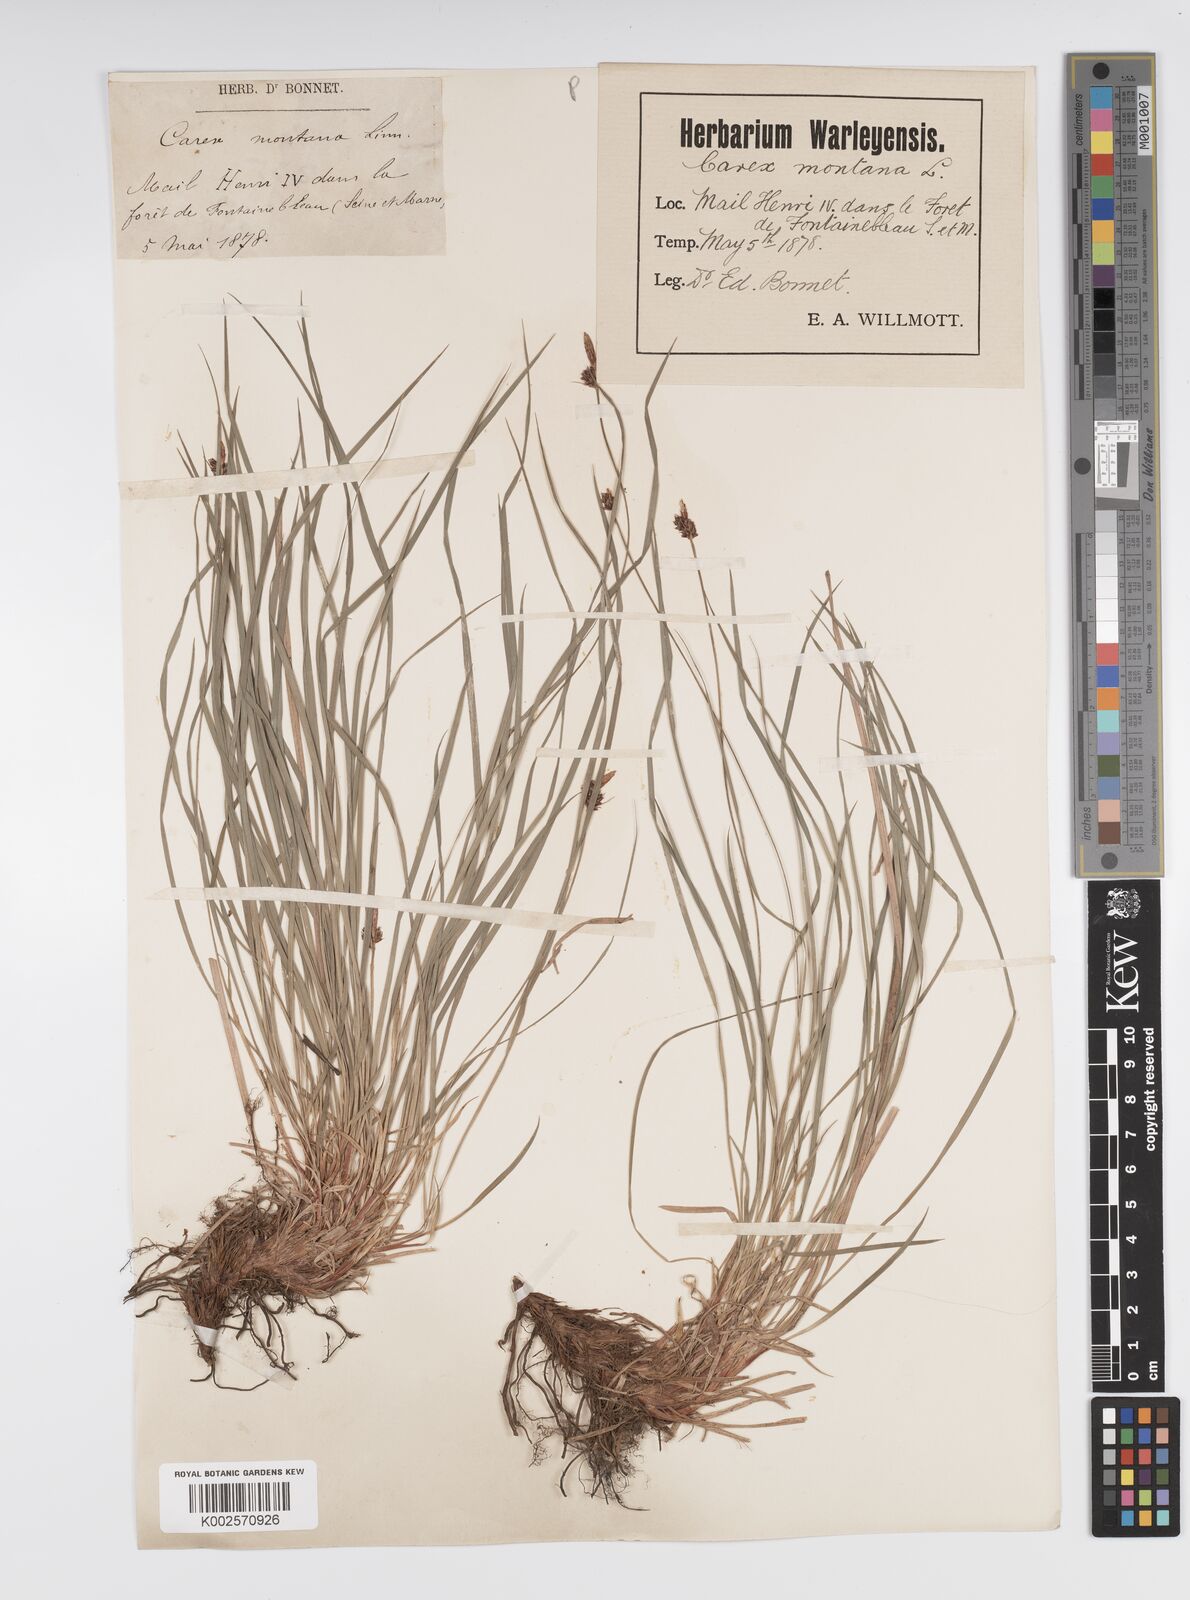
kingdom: Plantae
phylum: Tracheophyta
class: Liliopsida
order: Poales
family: Cyperaceae
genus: Carex
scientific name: Carex montana
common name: Soft-leaved sedge
